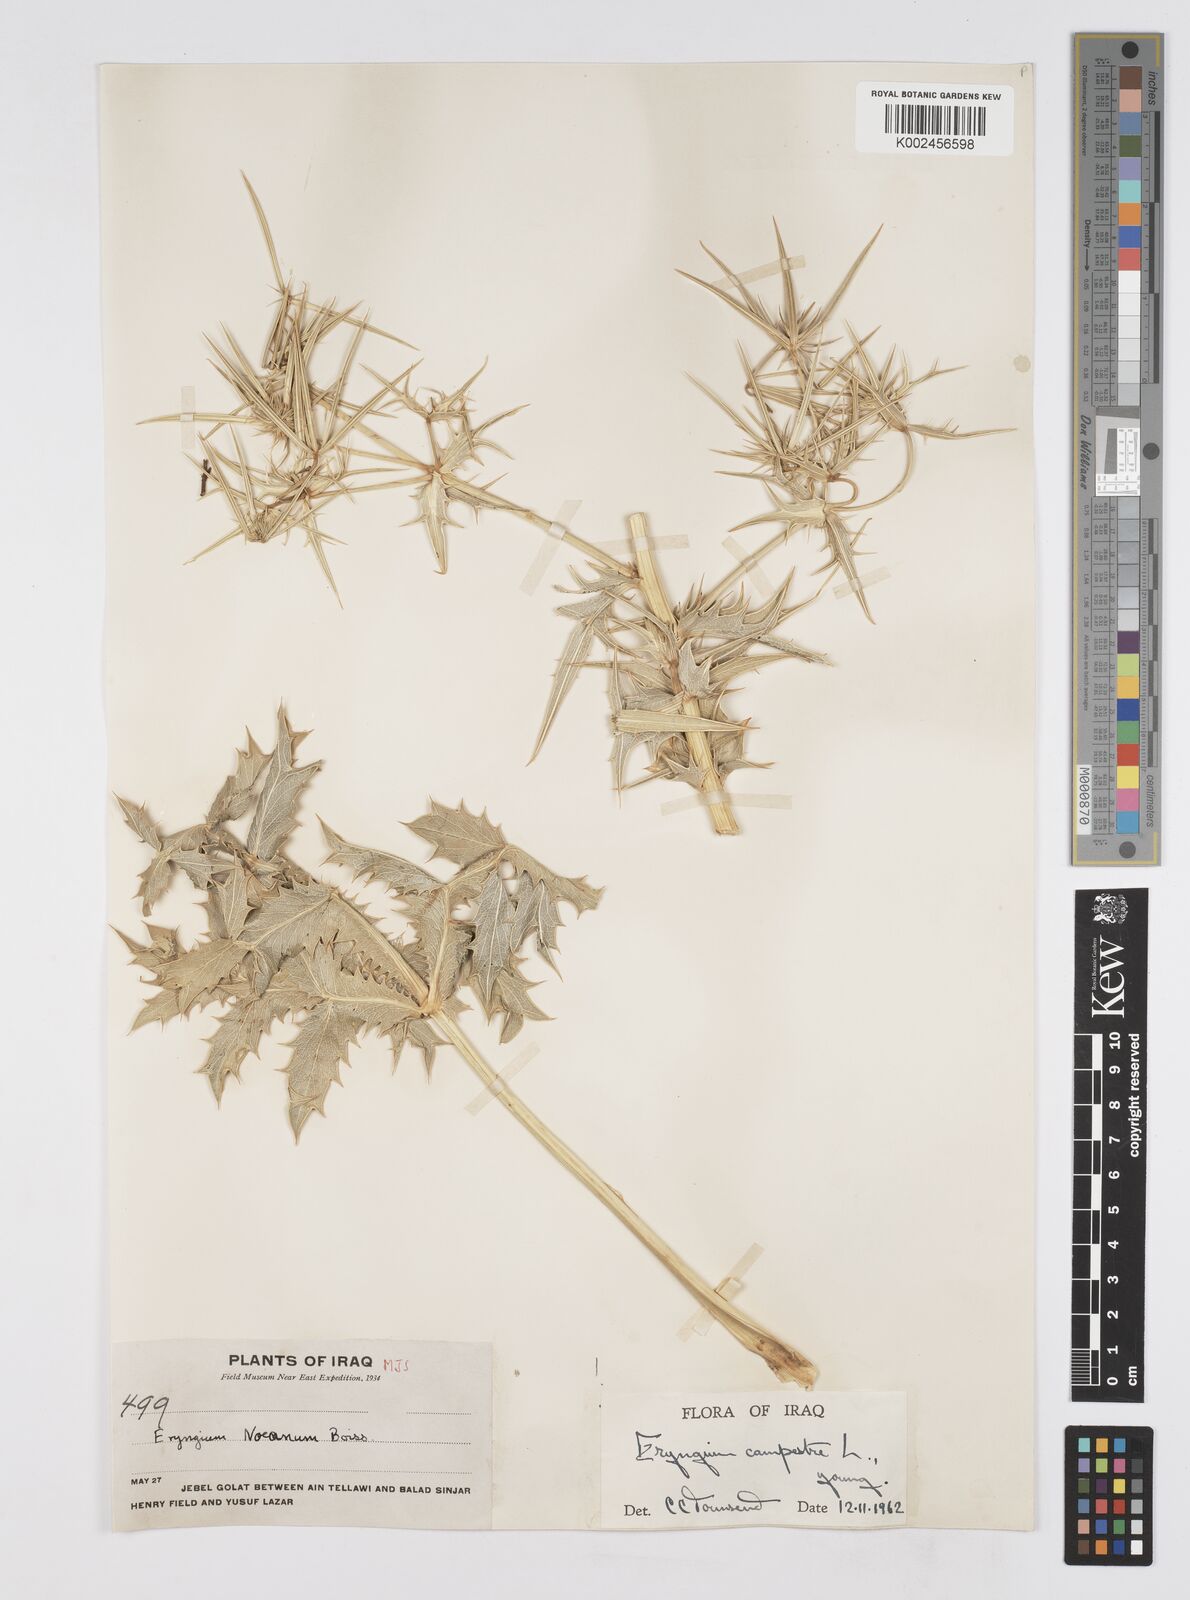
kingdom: Plantae
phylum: Tracheophyta
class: Magnoliopsida
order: Apiales
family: Apiaceae
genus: Eryngium
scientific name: Eryngium campestre
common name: Field eryngo
